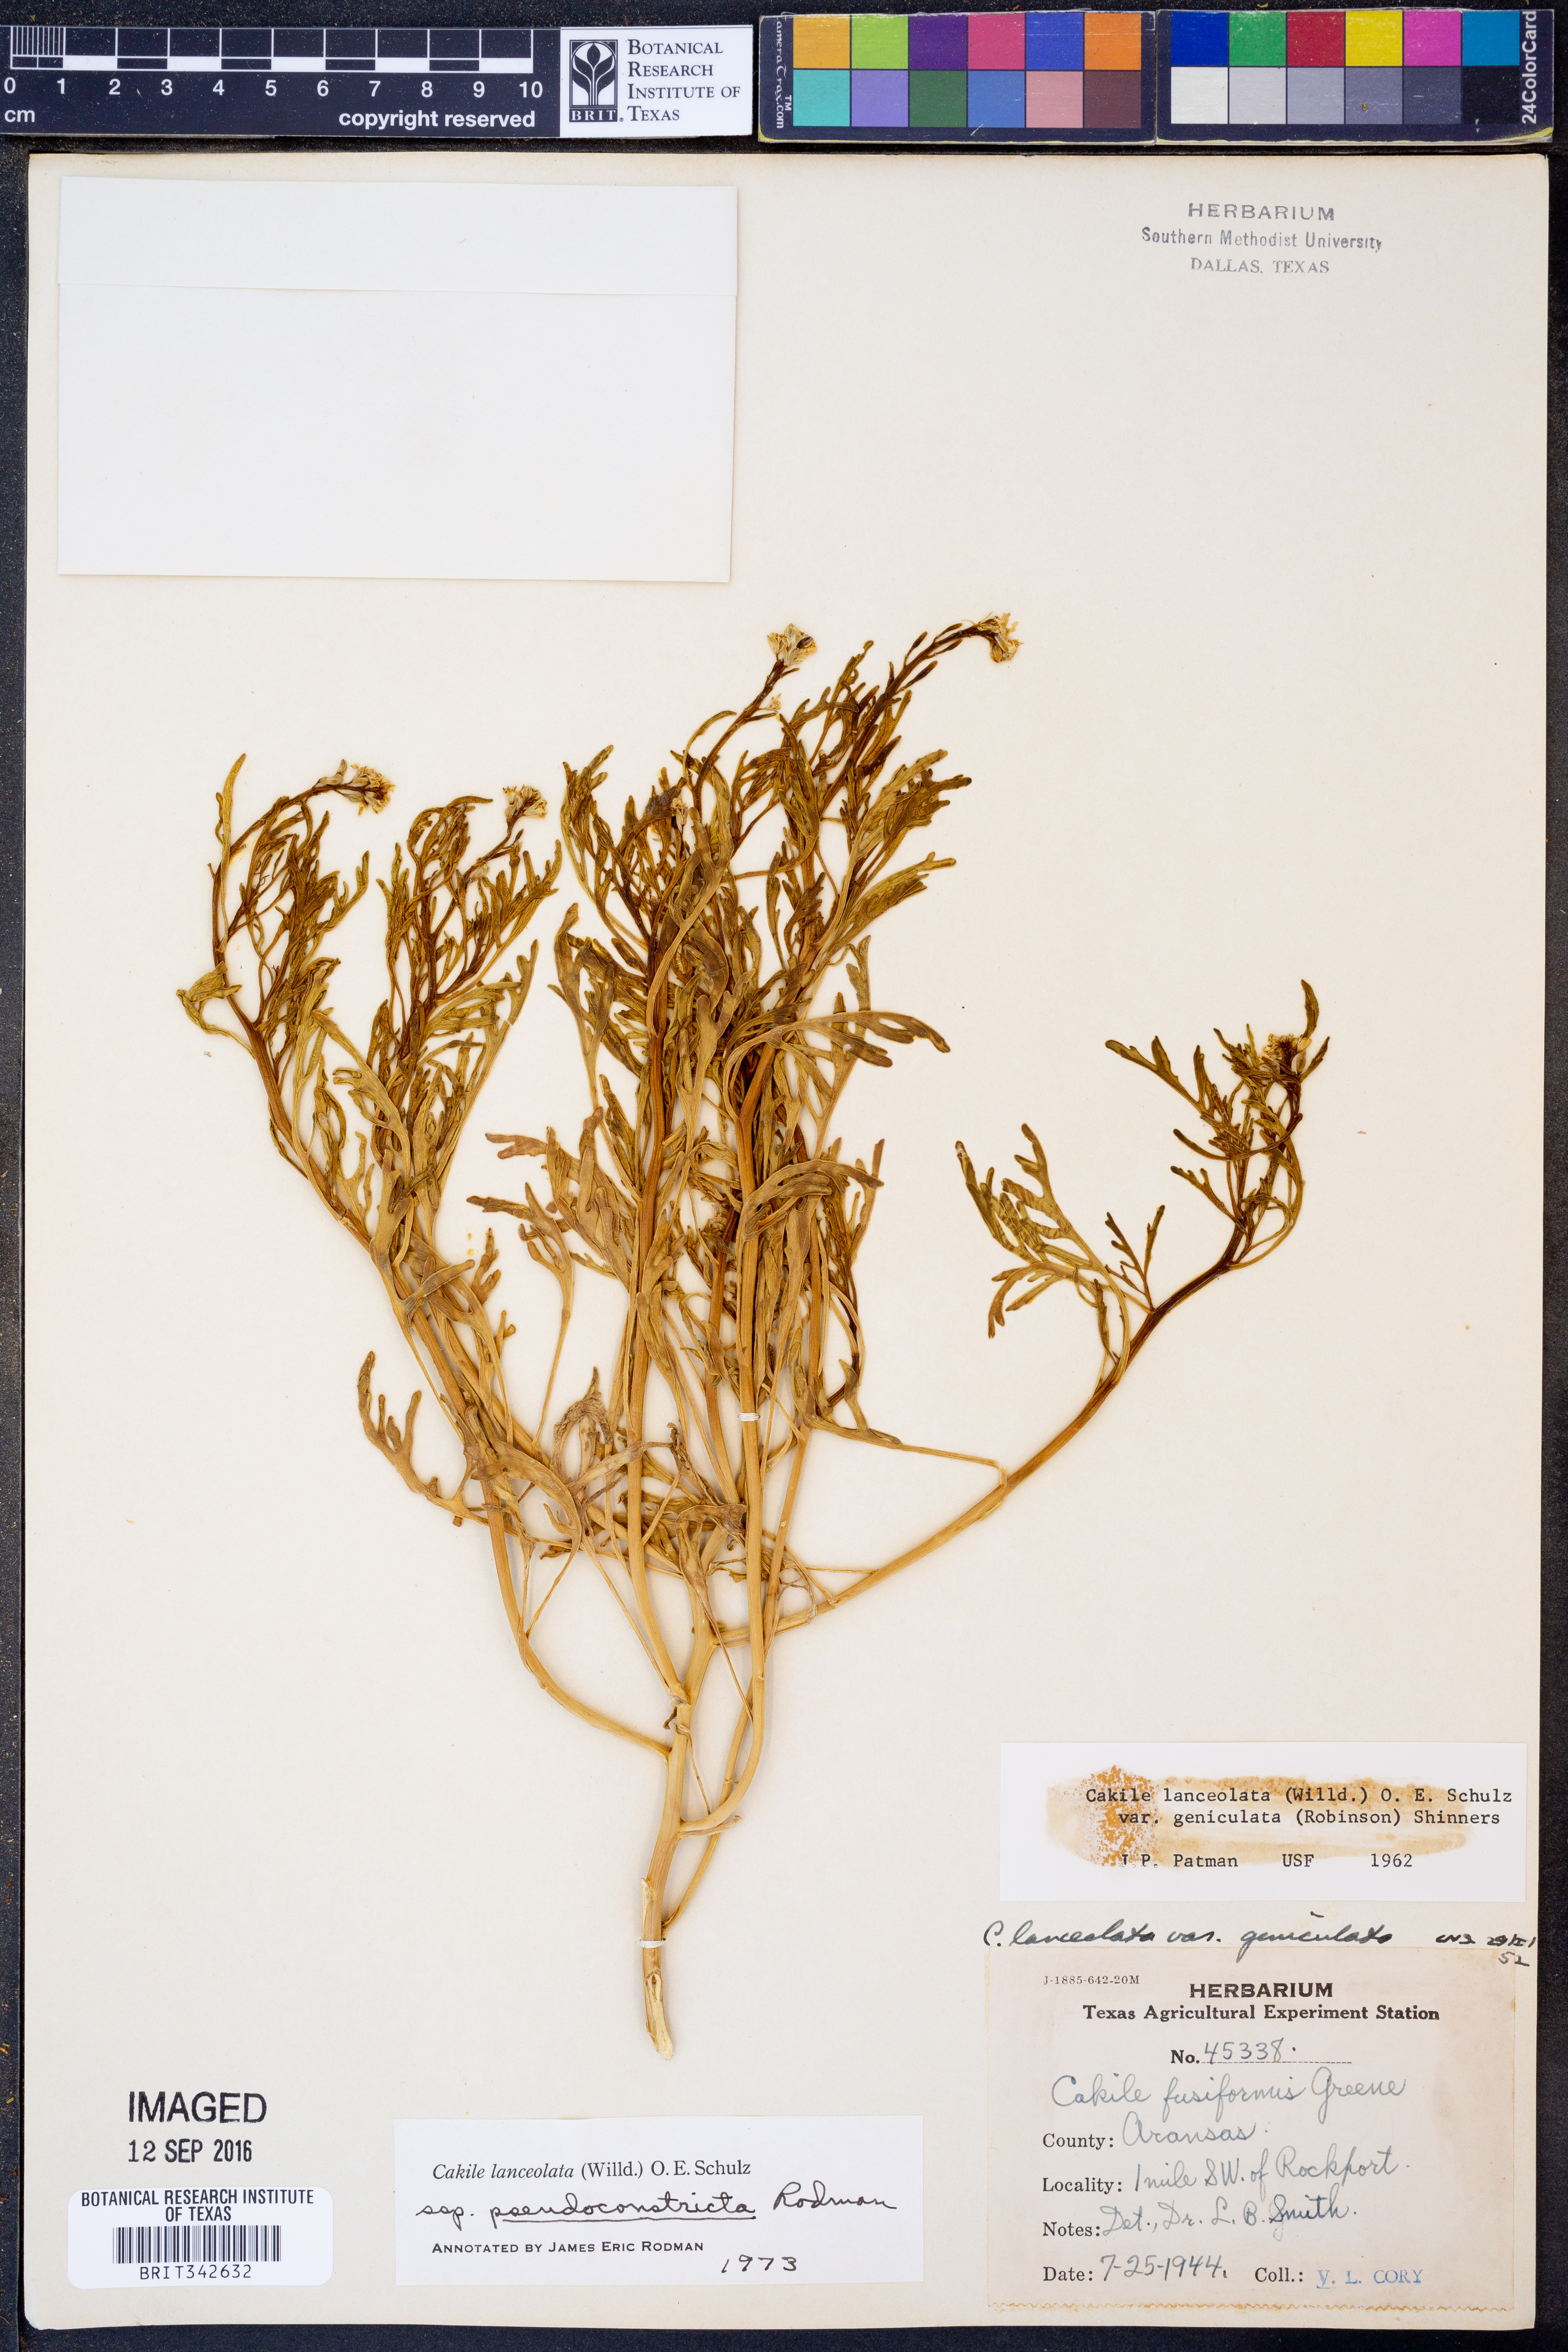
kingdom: Plantae
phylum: Tracheophyta
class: Magnoliopsida
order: Brassicales
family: Brassicaceae
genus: Cakile
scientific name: Cakile lanceolata
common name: Sea rocket
